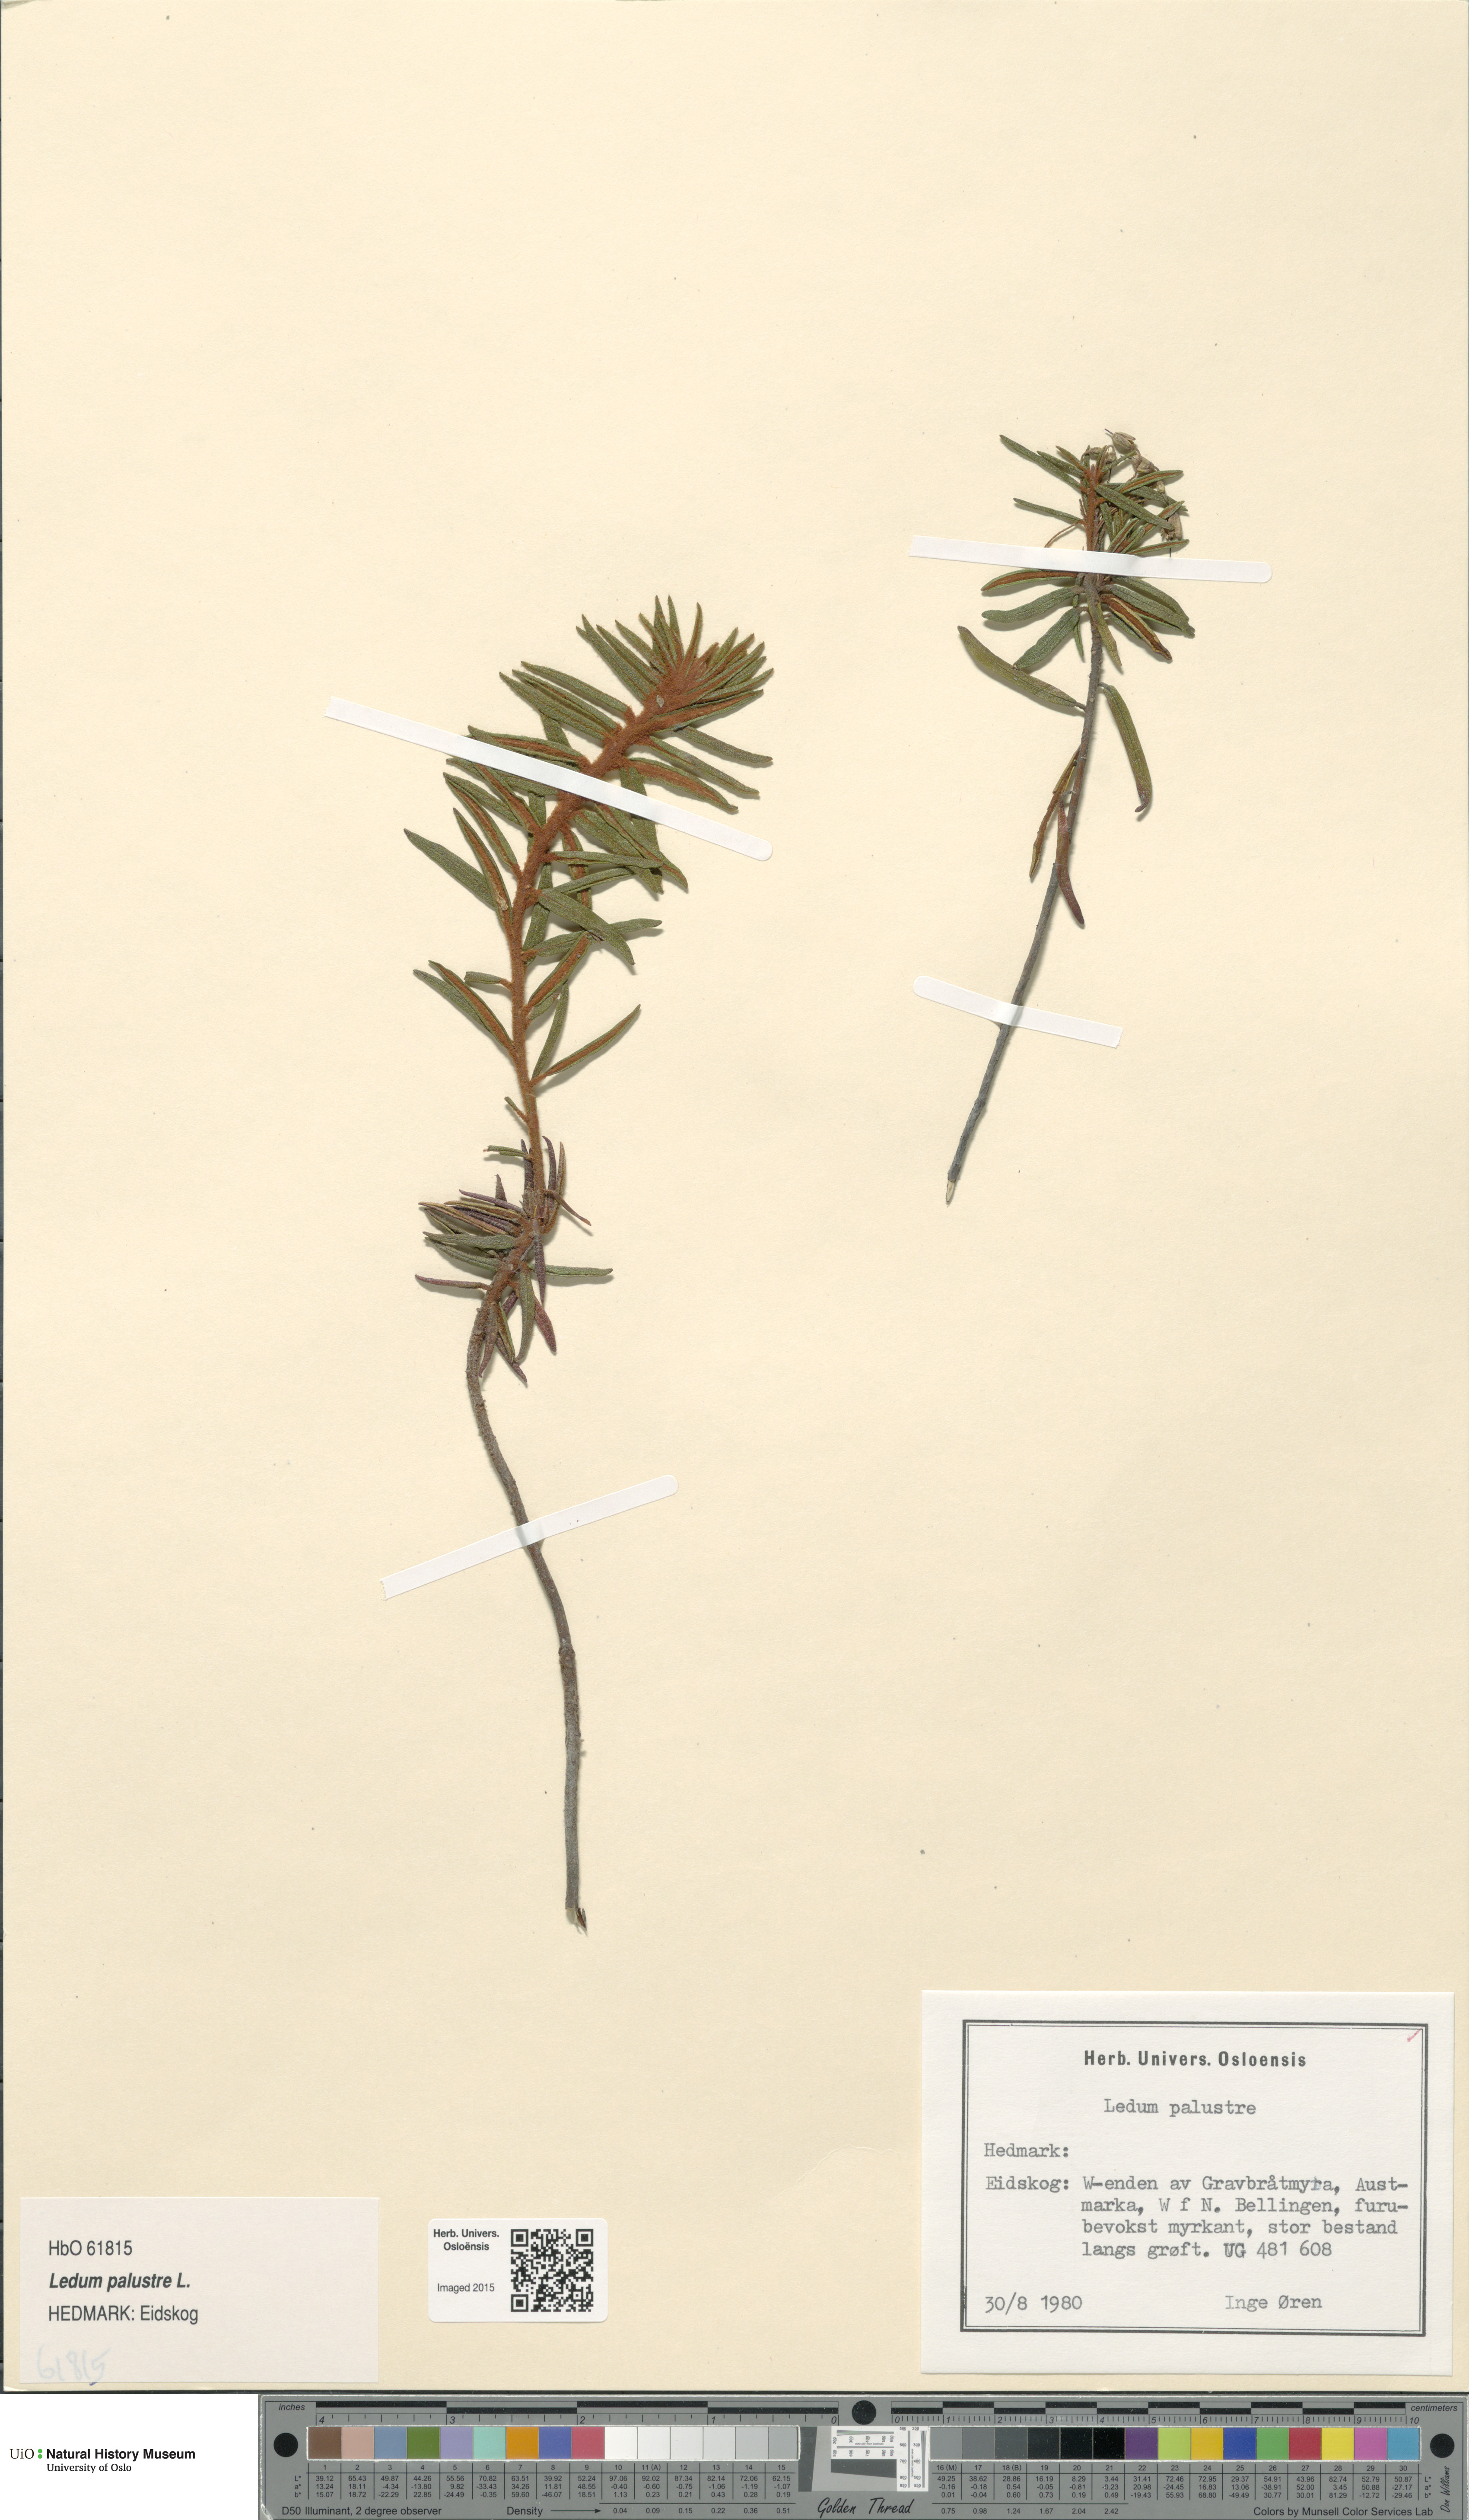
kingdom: Plantae
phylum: Tracheophyta
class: Magnoliopsida
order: Ericales
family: Ericaceae
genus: Rhododendron
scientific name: Rhododendron tomentosum
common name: Marsh labrador tea
